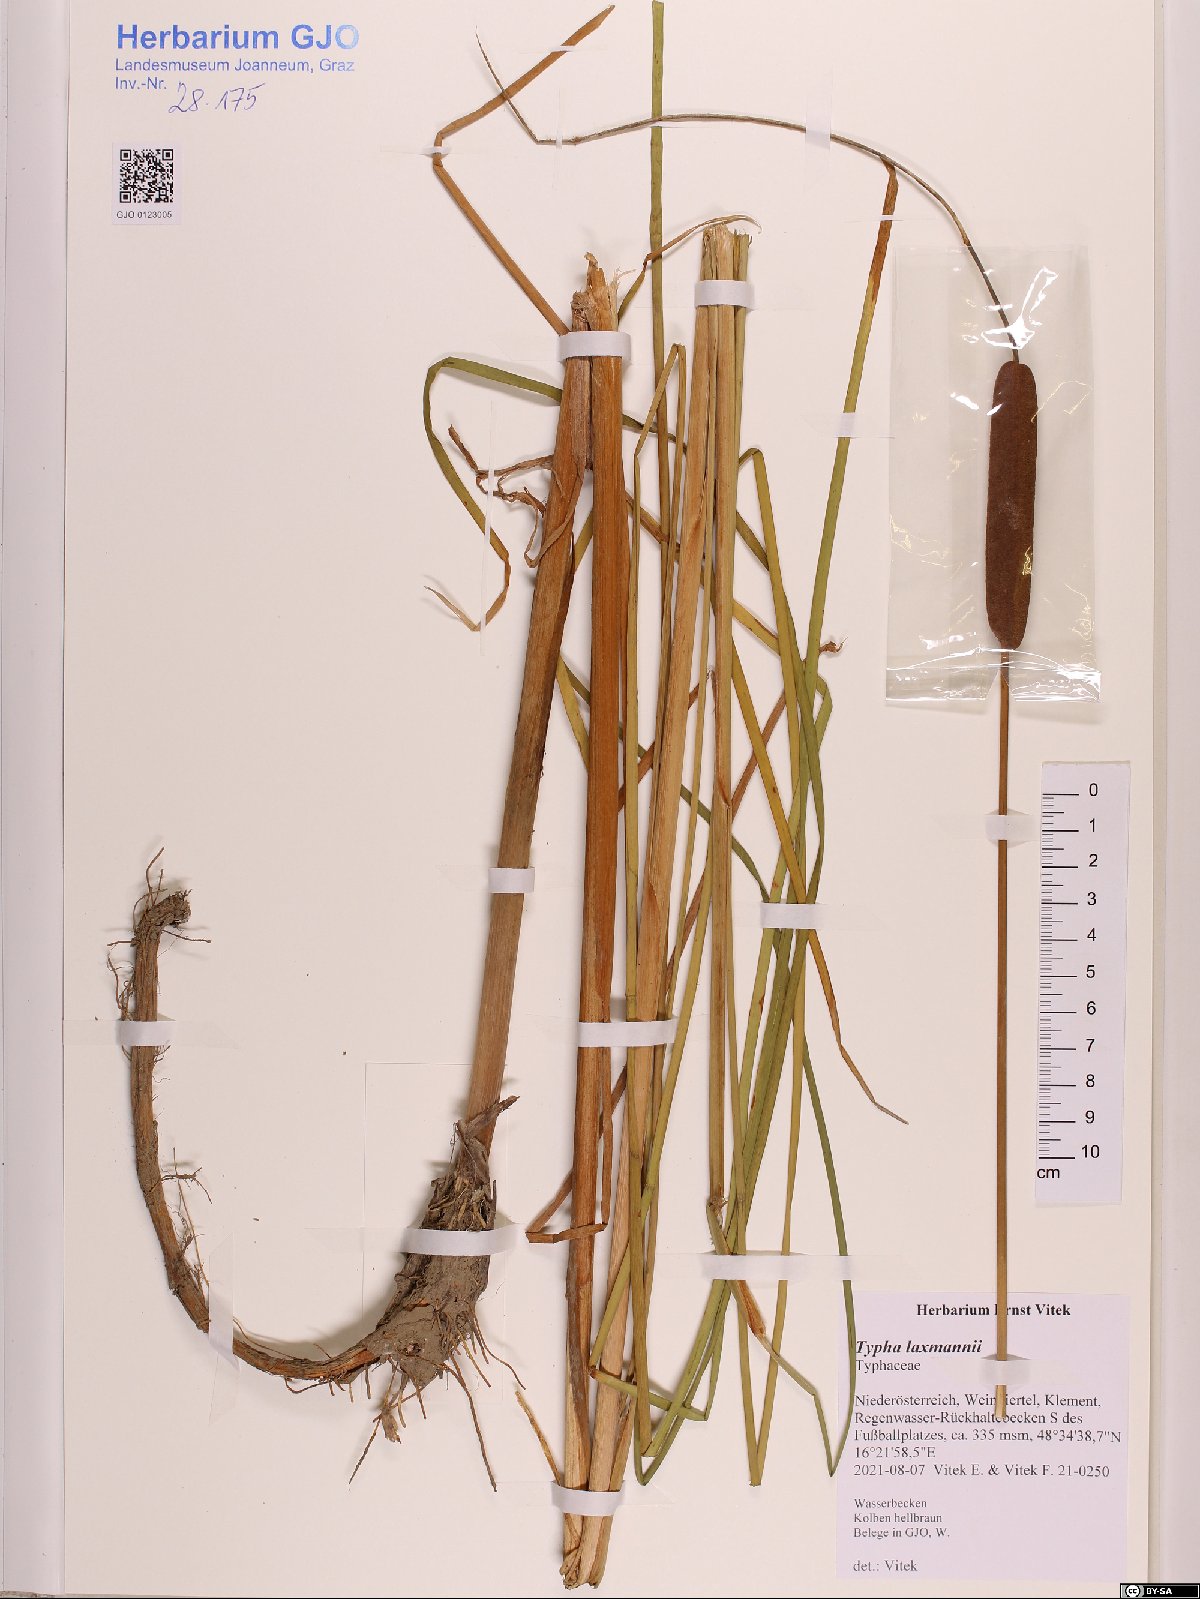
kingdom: Plantae
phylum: Tracheophyta
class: Liliopsida
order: Poales
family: Typhaceae
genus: Typha
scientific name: Typha laxmannii
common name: Laxman’s bulrush
